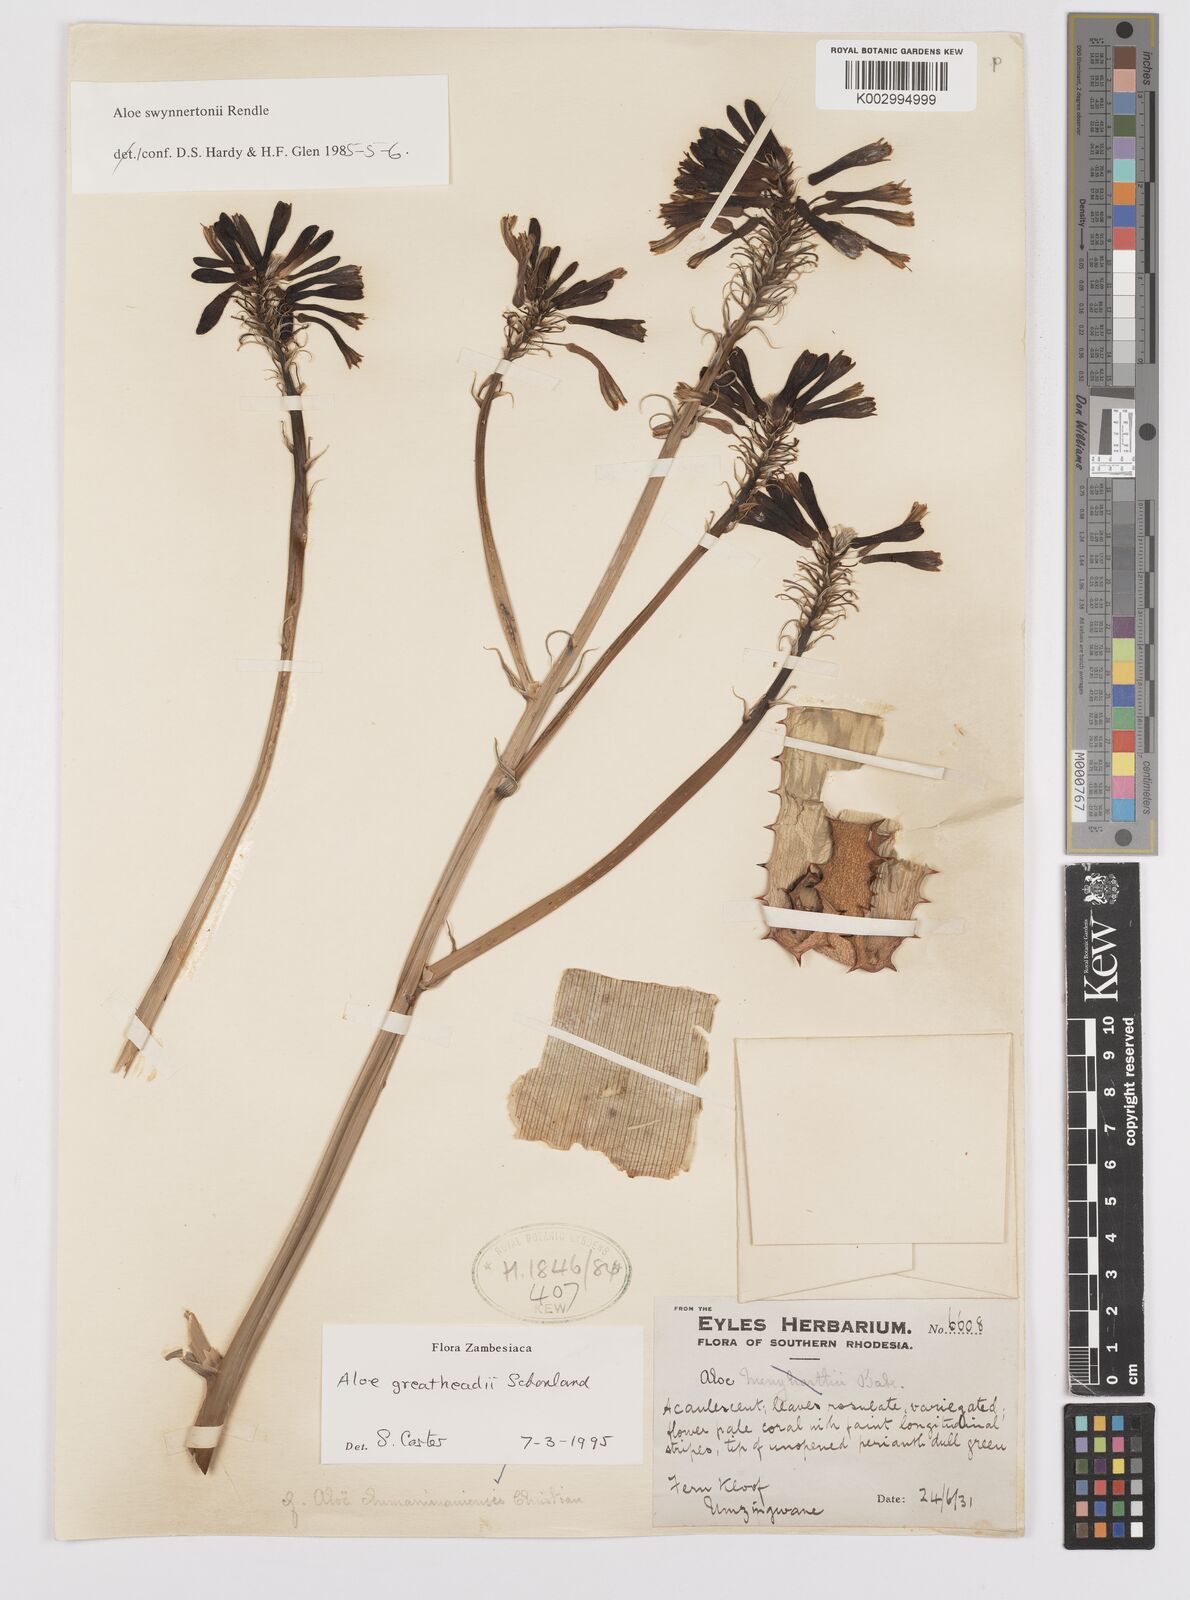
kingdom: Plantae
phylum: Tracheophyta
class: Liliopsida
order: Asparagales
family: Asphodelaceae
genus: Aloe
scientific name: Aloe greatheadii
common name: Greathead's aloe
